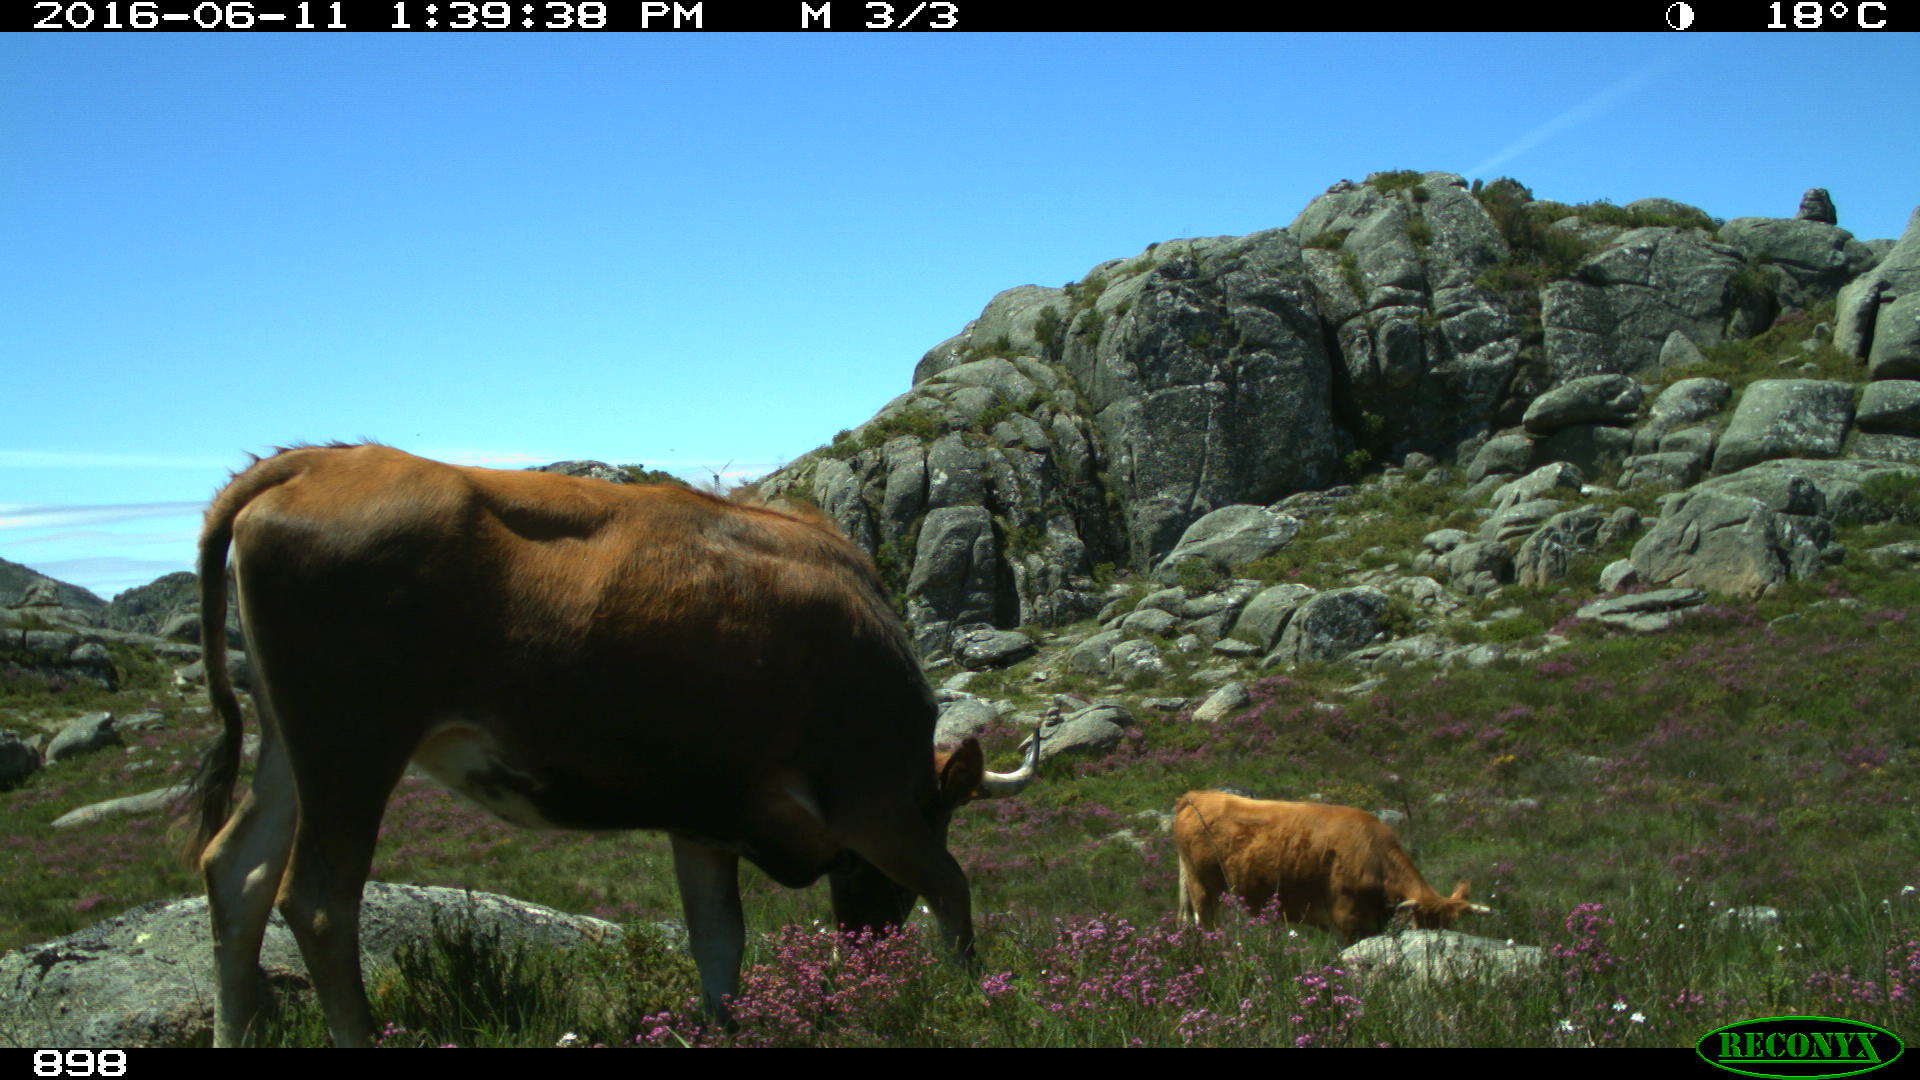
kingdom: Animalia
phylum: Chordata
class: Mammalia
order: Artiodactyla
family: Bovidae
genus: Bos
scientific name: Bos taurus
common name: Domesticated cattle
